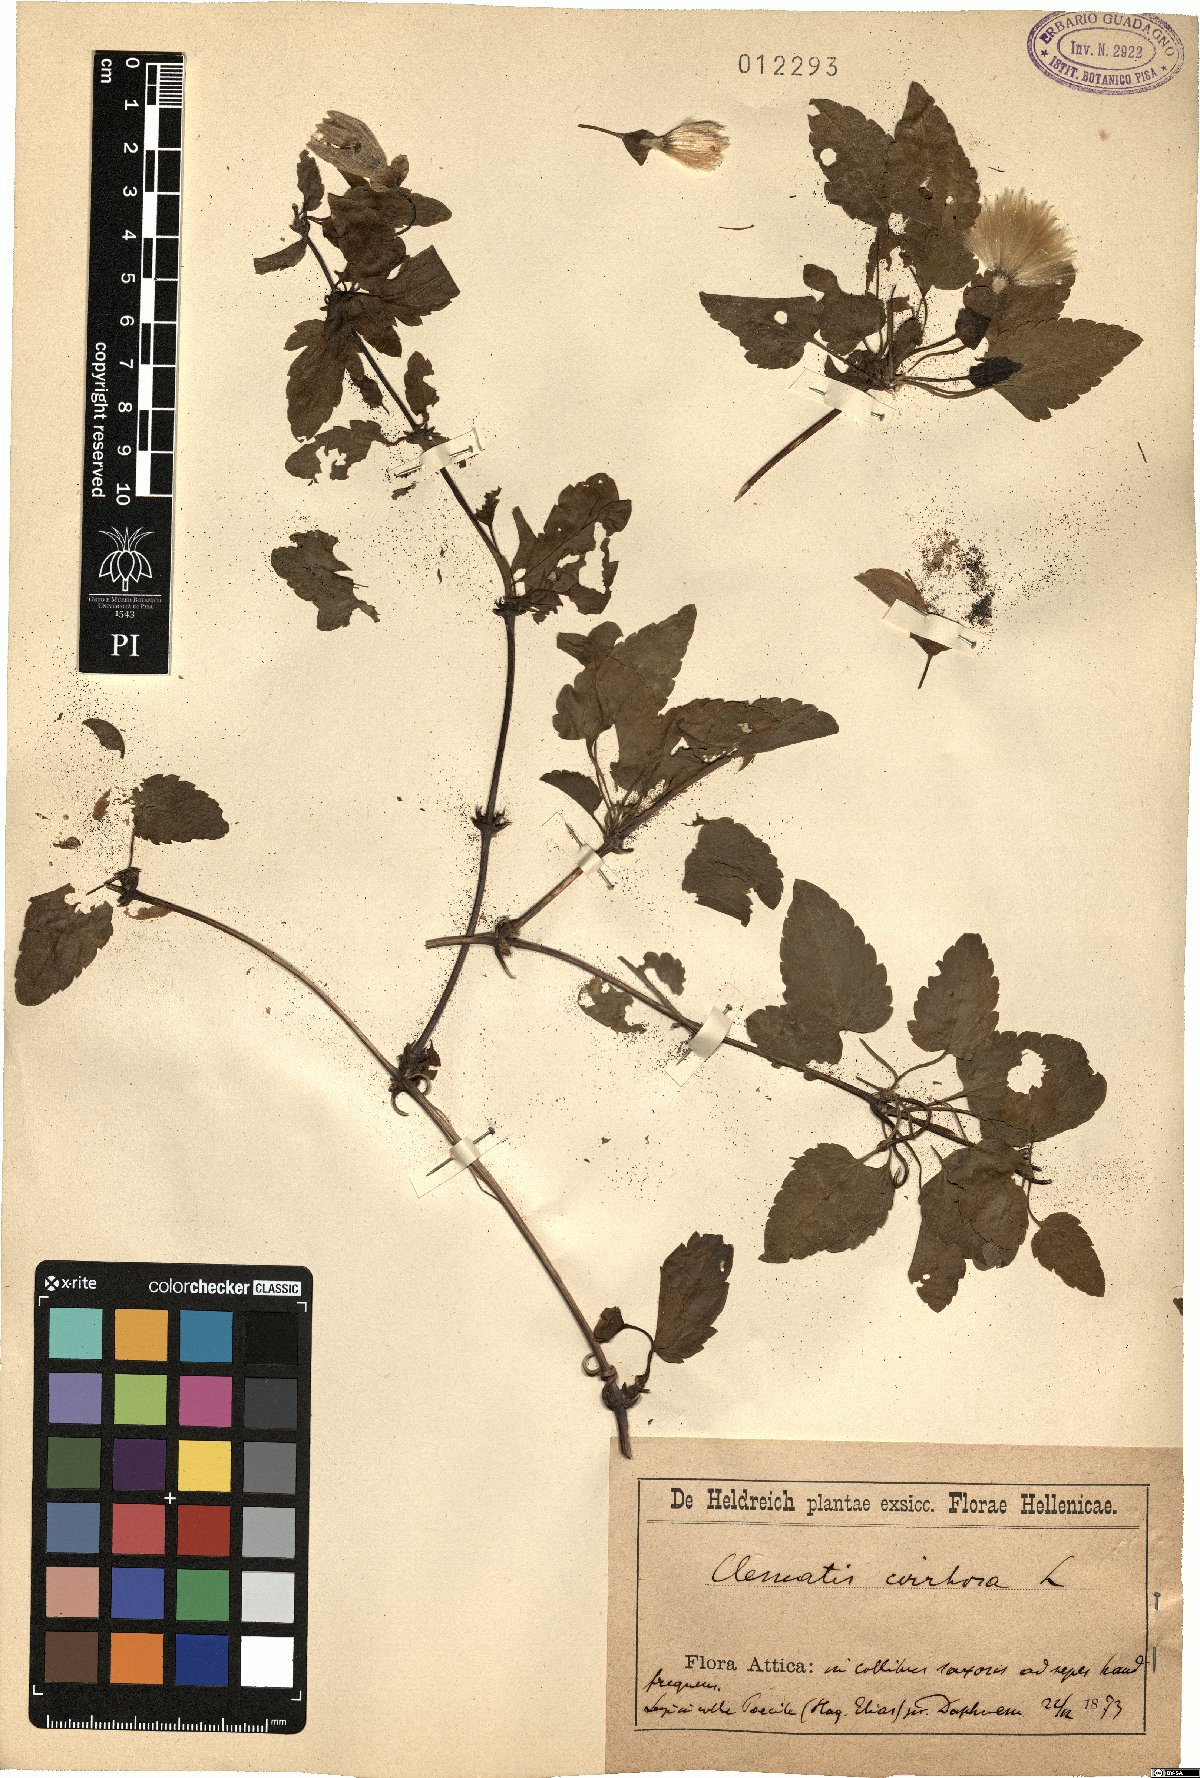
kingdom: Plantae
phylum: Tracheophyta
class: Magnoliopsida
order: Ranunculales
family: Ranunculaceae
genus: Clematis
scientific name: Clematis cirrhosa
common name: Early virgin's-bower
